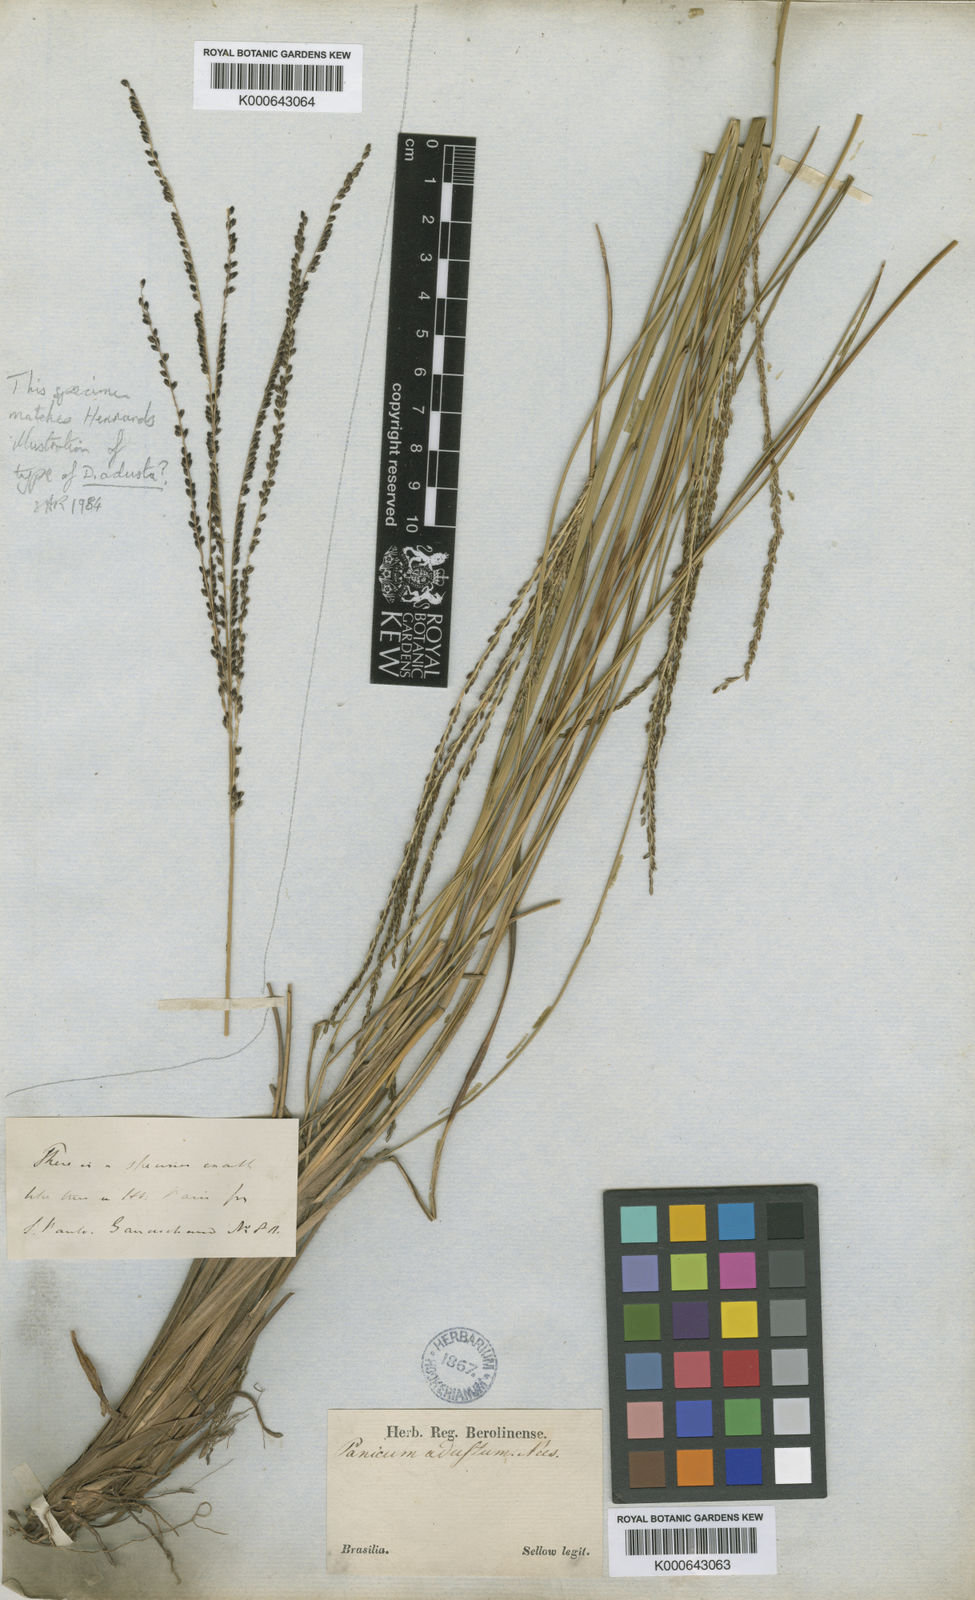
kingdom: Plantae
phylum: Tracheophyta
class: Liliopsida
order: Poales
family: Poaceae
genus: Digitaria
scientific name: Digitaria phaeothrix
